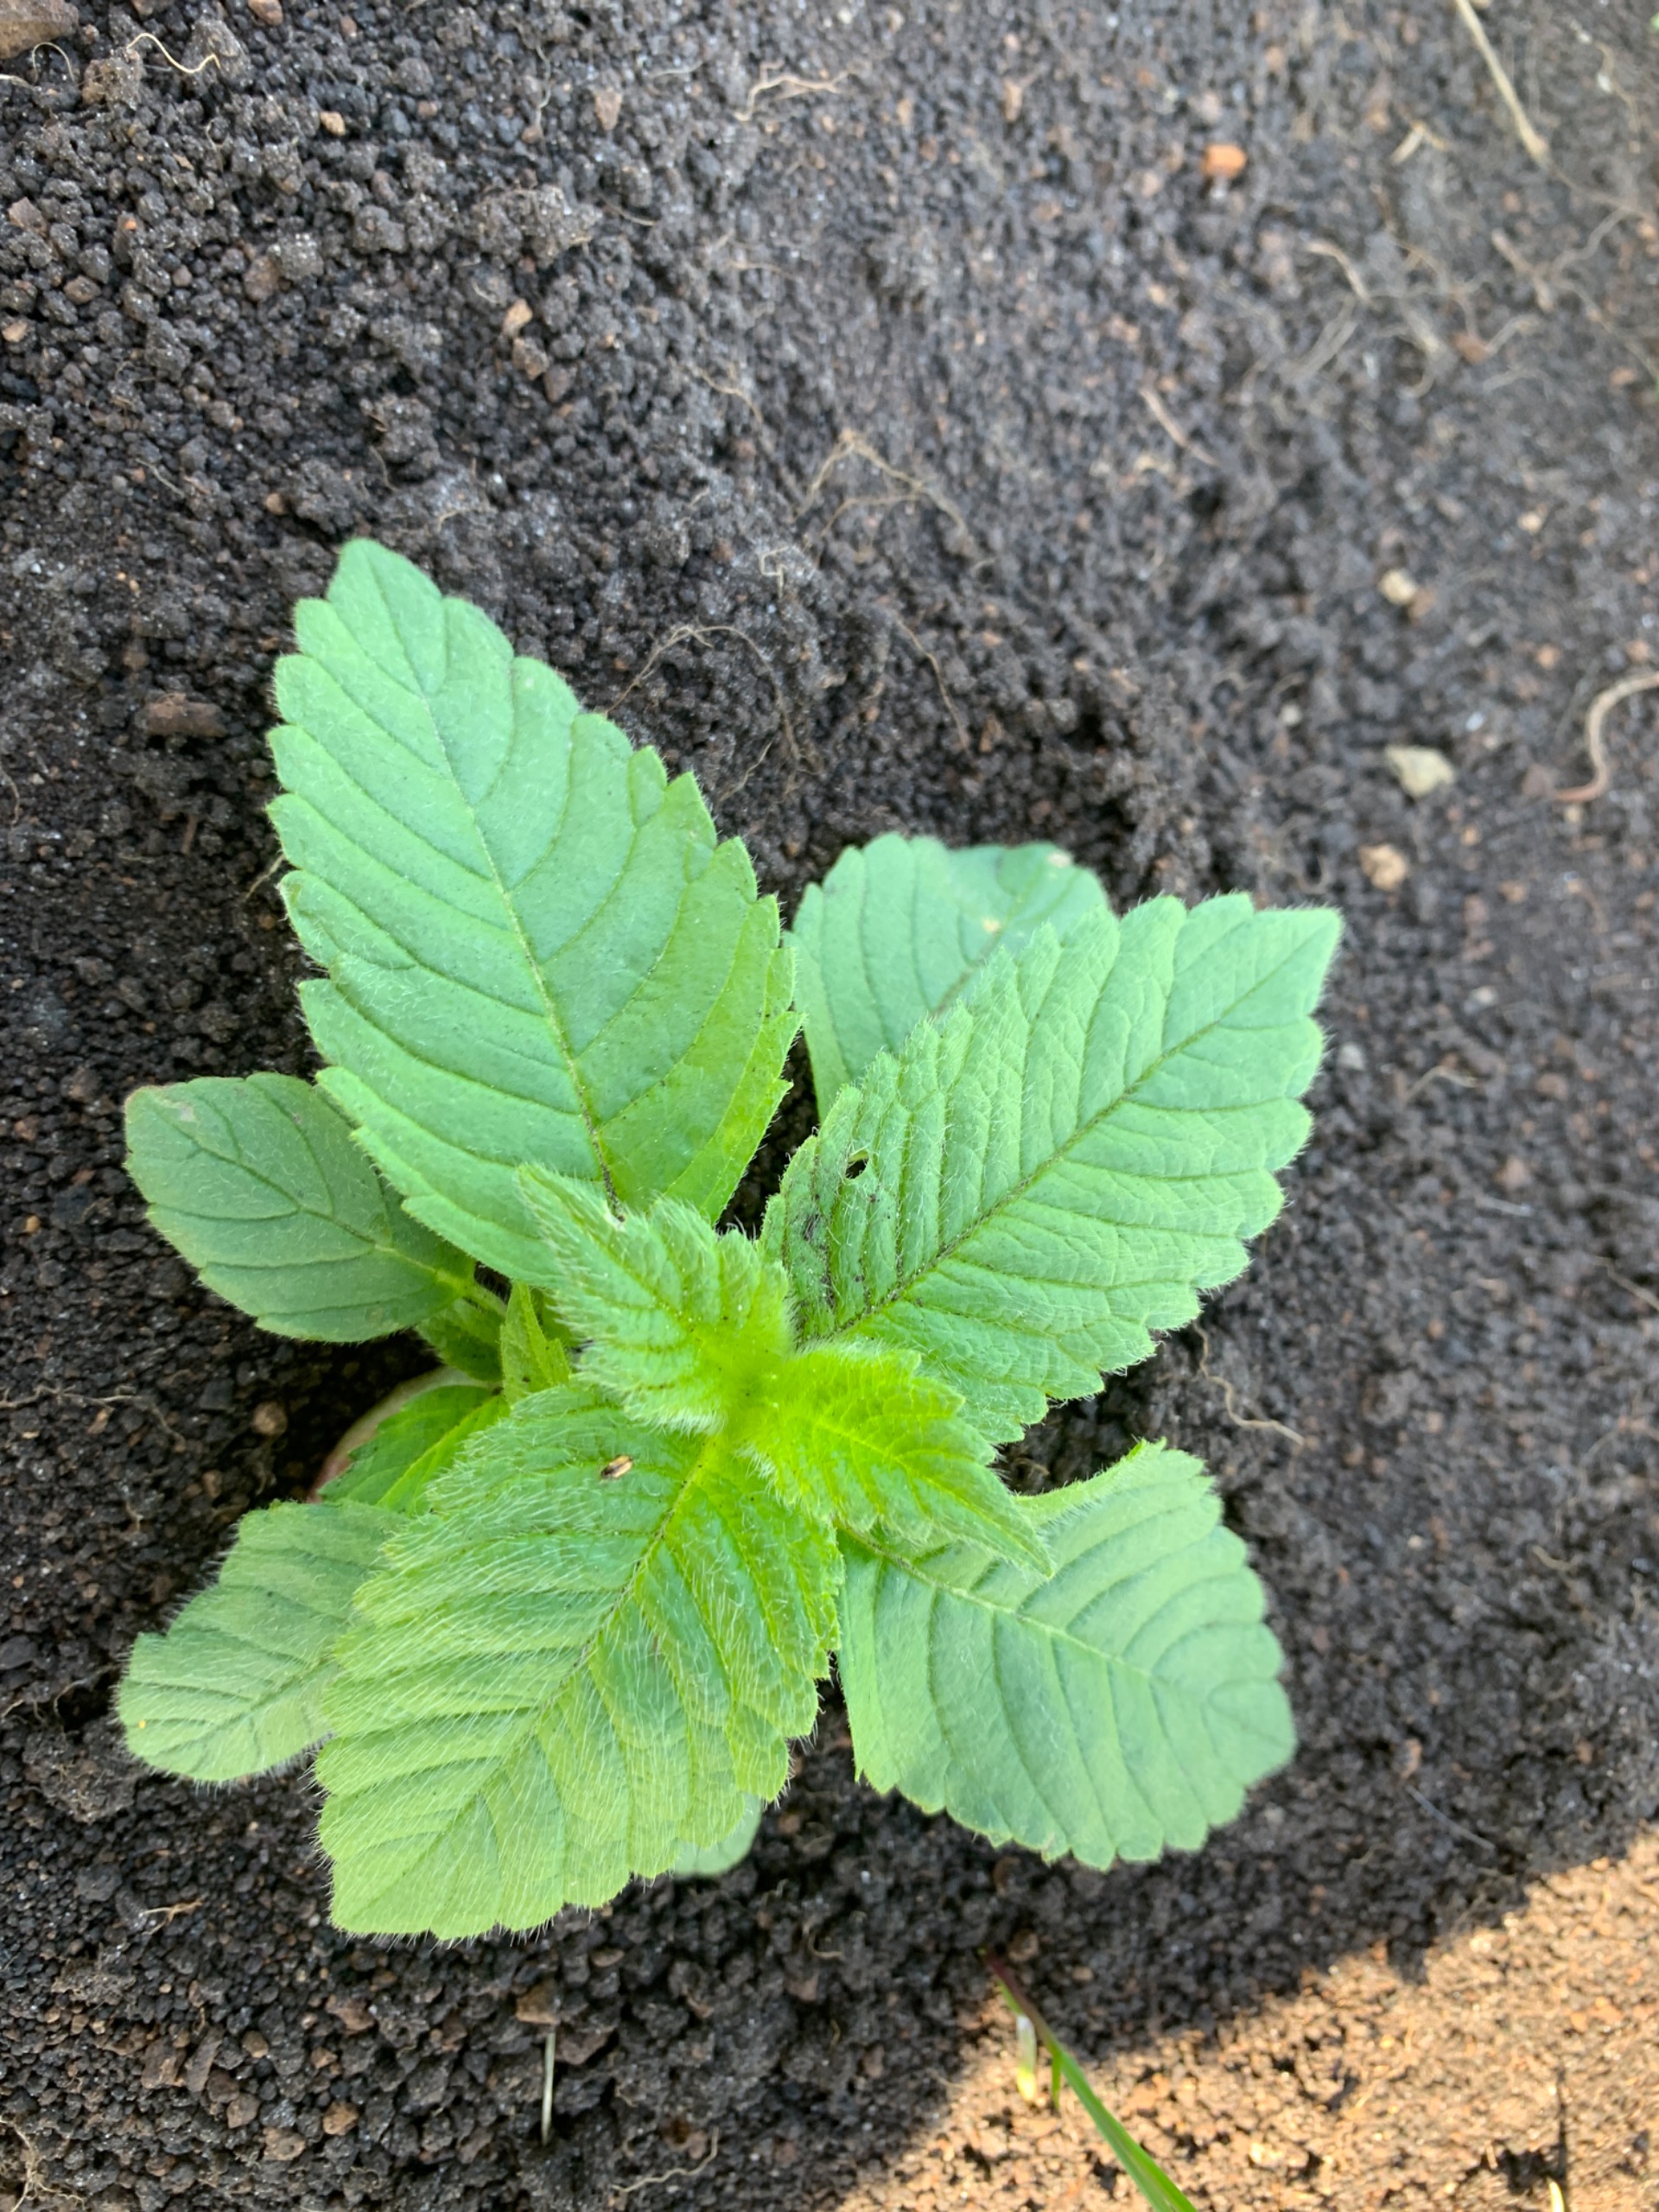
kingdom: Plantae
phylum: Tracheophyta
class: Magnoliopsida
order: Lamiales
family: Lamiaceae
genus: Galeopsis
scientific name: Galeopsis
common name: Hanekroslægten
